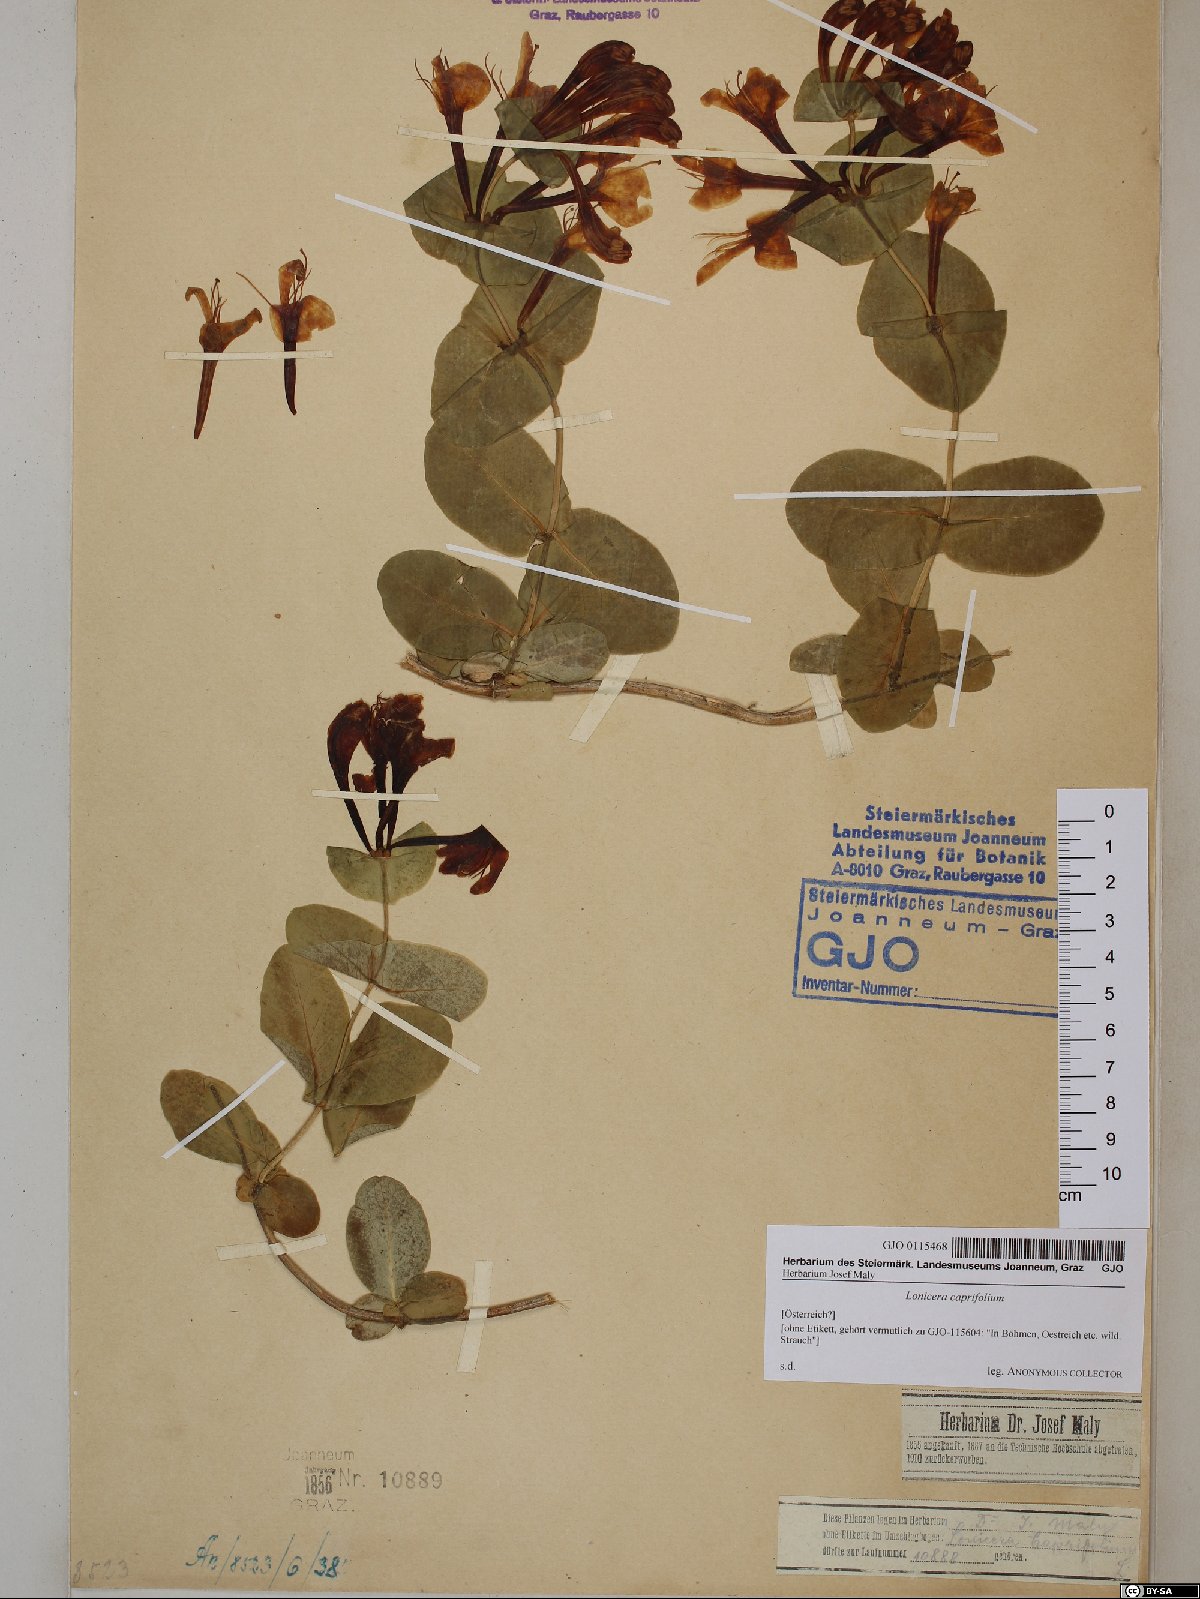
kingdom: Plantae
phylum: Tracheophyta
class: Magnoliopsida
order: Dipsacales
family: Caprifoliaceae
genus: Lonicera
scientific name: Lonicera caprifolium
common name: Perfoliate honeysuckle
